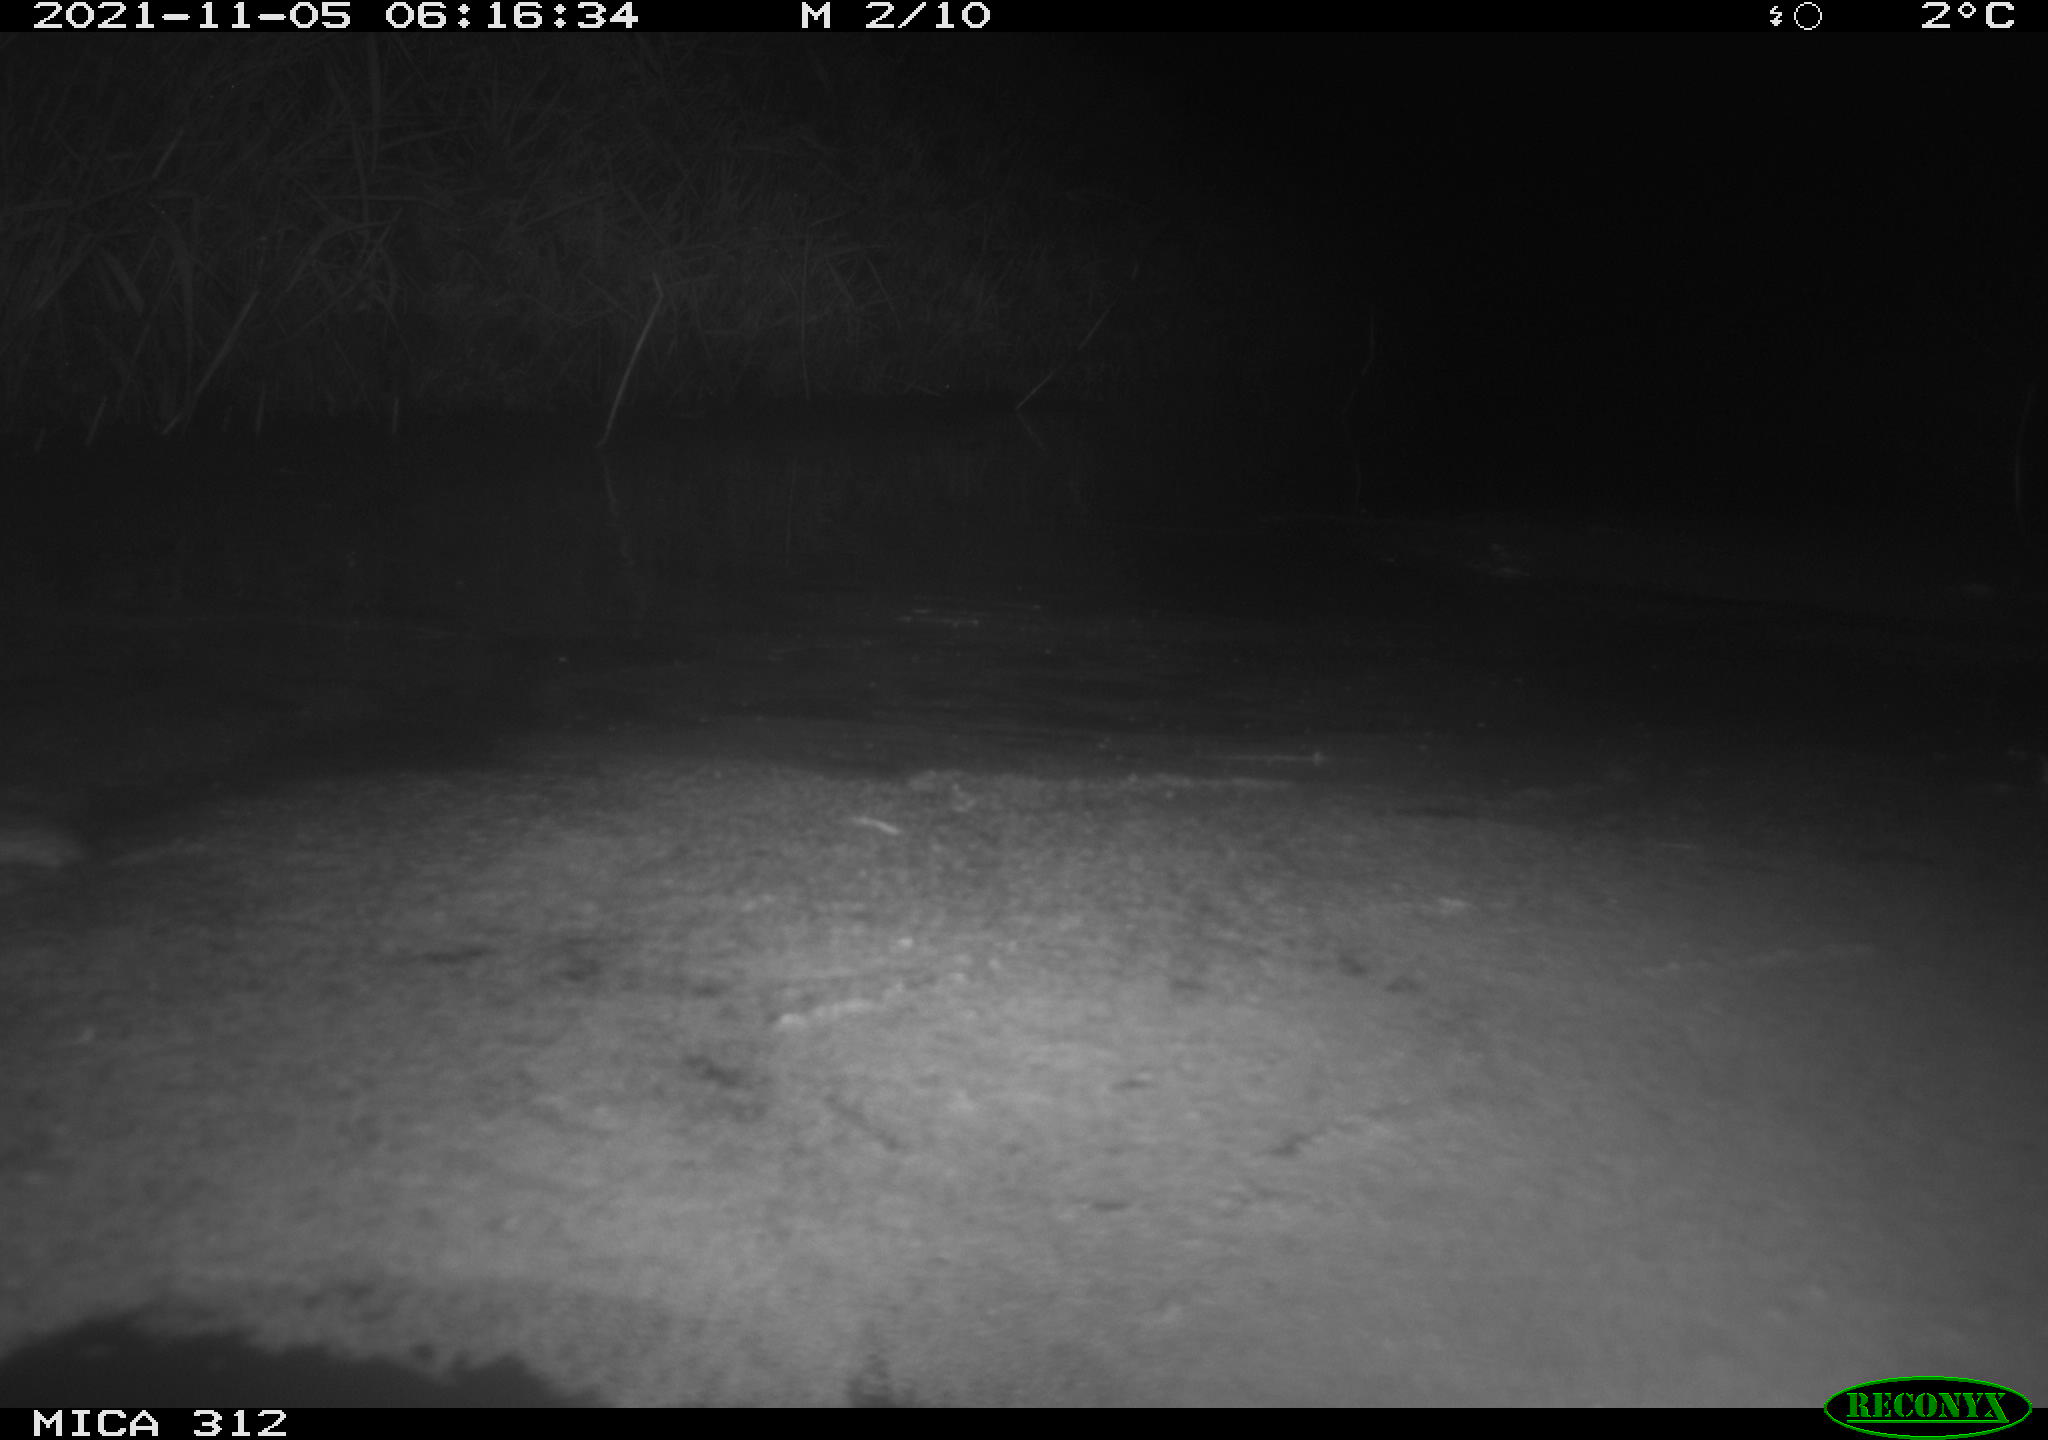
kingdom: Animalia
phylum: Chordata
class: Mammalia
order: Rodentia
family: Muridae
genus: Rattus
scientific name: Rattus norvegicus
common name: Brown rat
